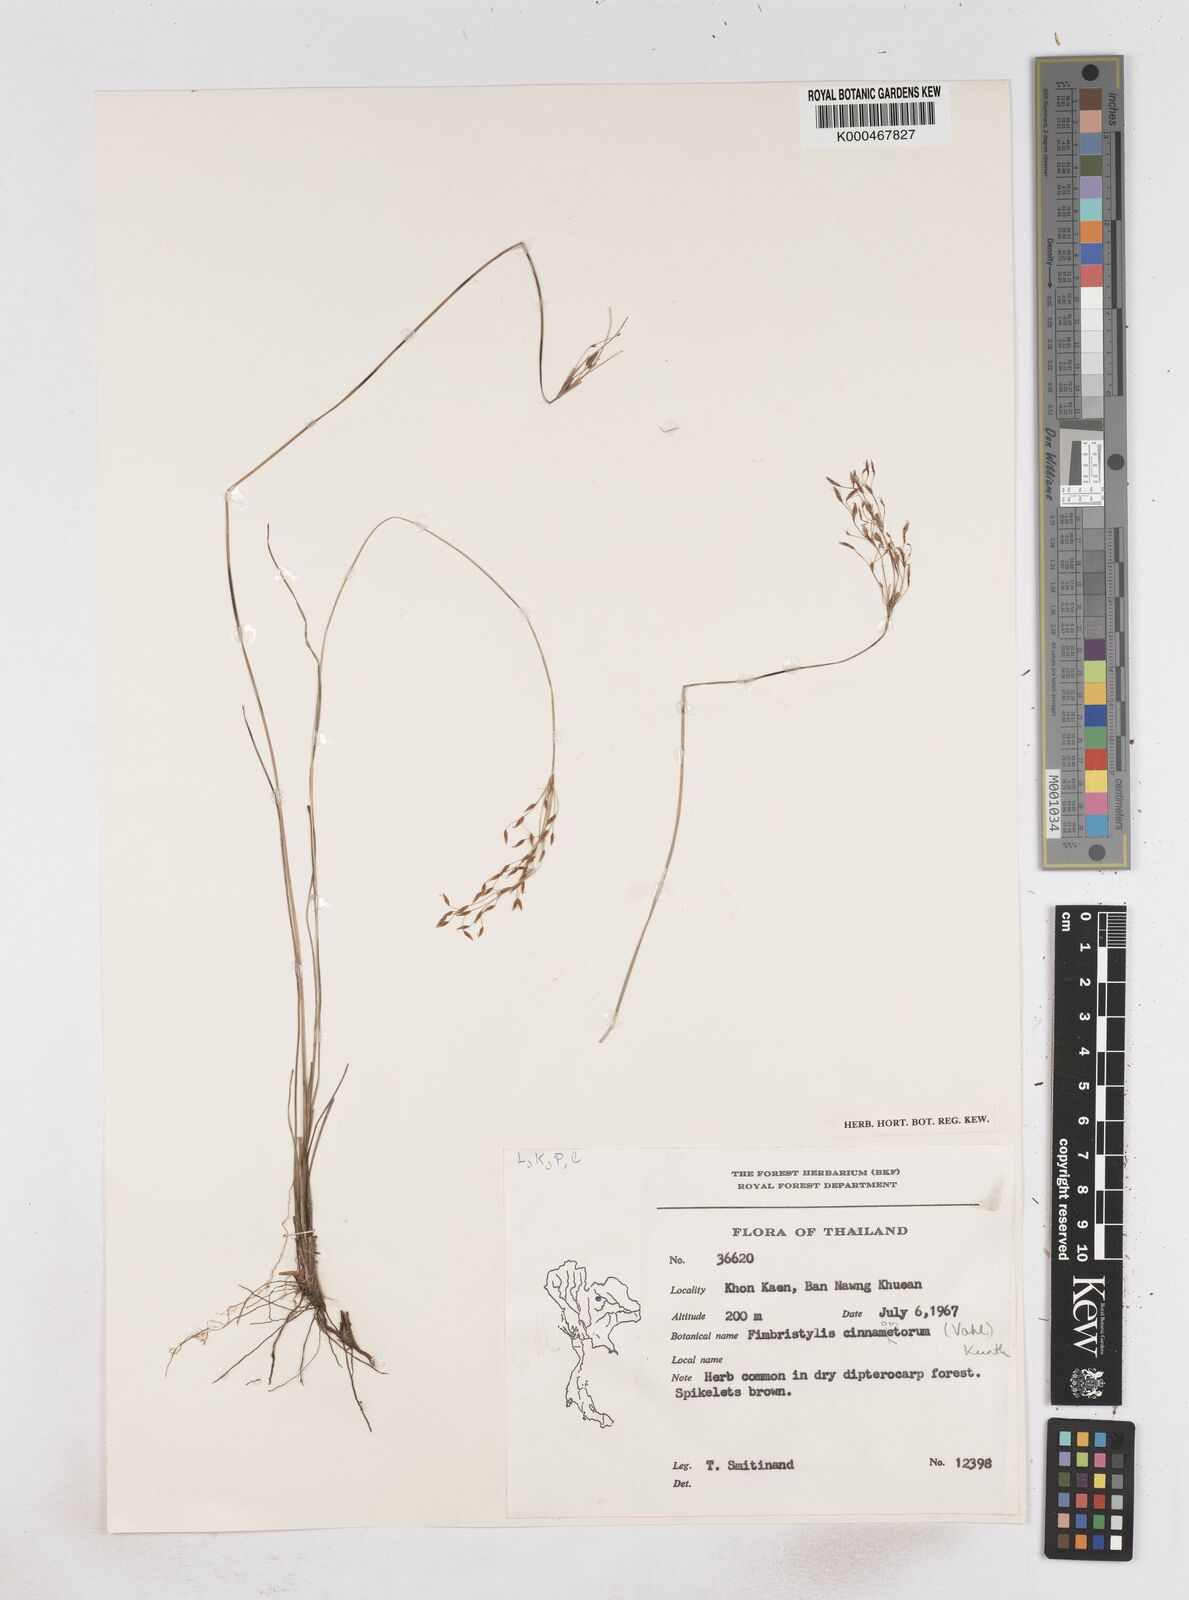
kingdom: Plantae
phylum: Tracheophyta
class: Liliopsida
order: Poales
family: Cyperaceae
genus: Fimbristylis
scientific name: Fimbristylis cinnamometorum
